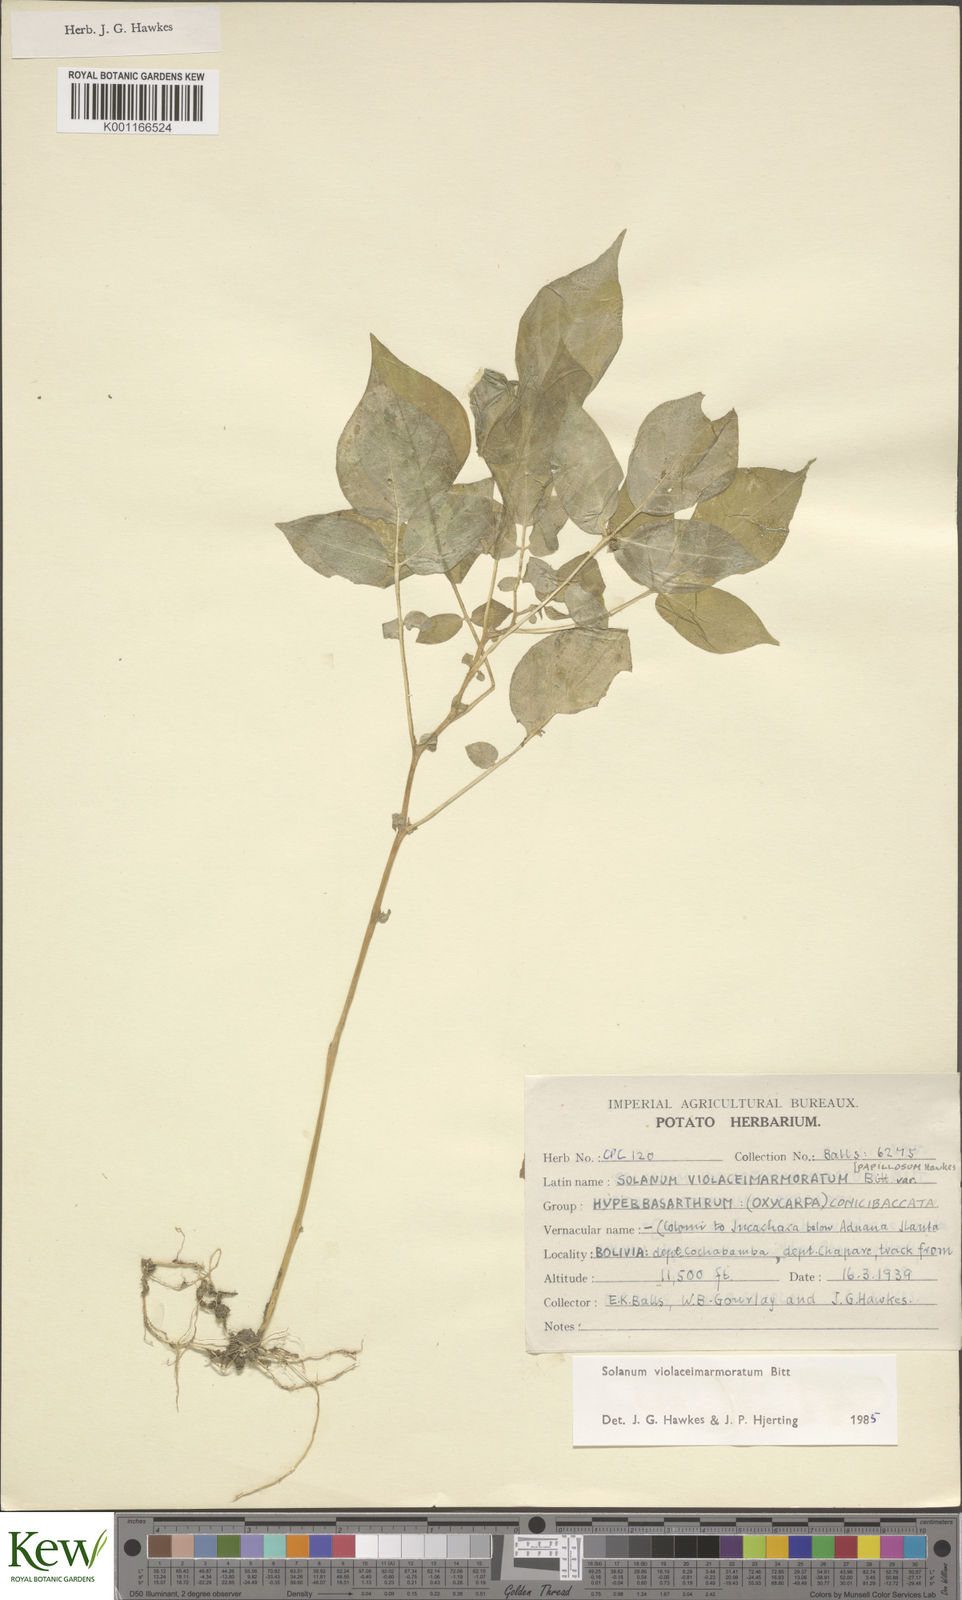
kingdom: Plantae
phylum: Tracheophyta
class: Magnoliopsida
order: Solanales
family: Solanaceae
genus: Solanum
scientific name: Solanum violaceimarmoratum
